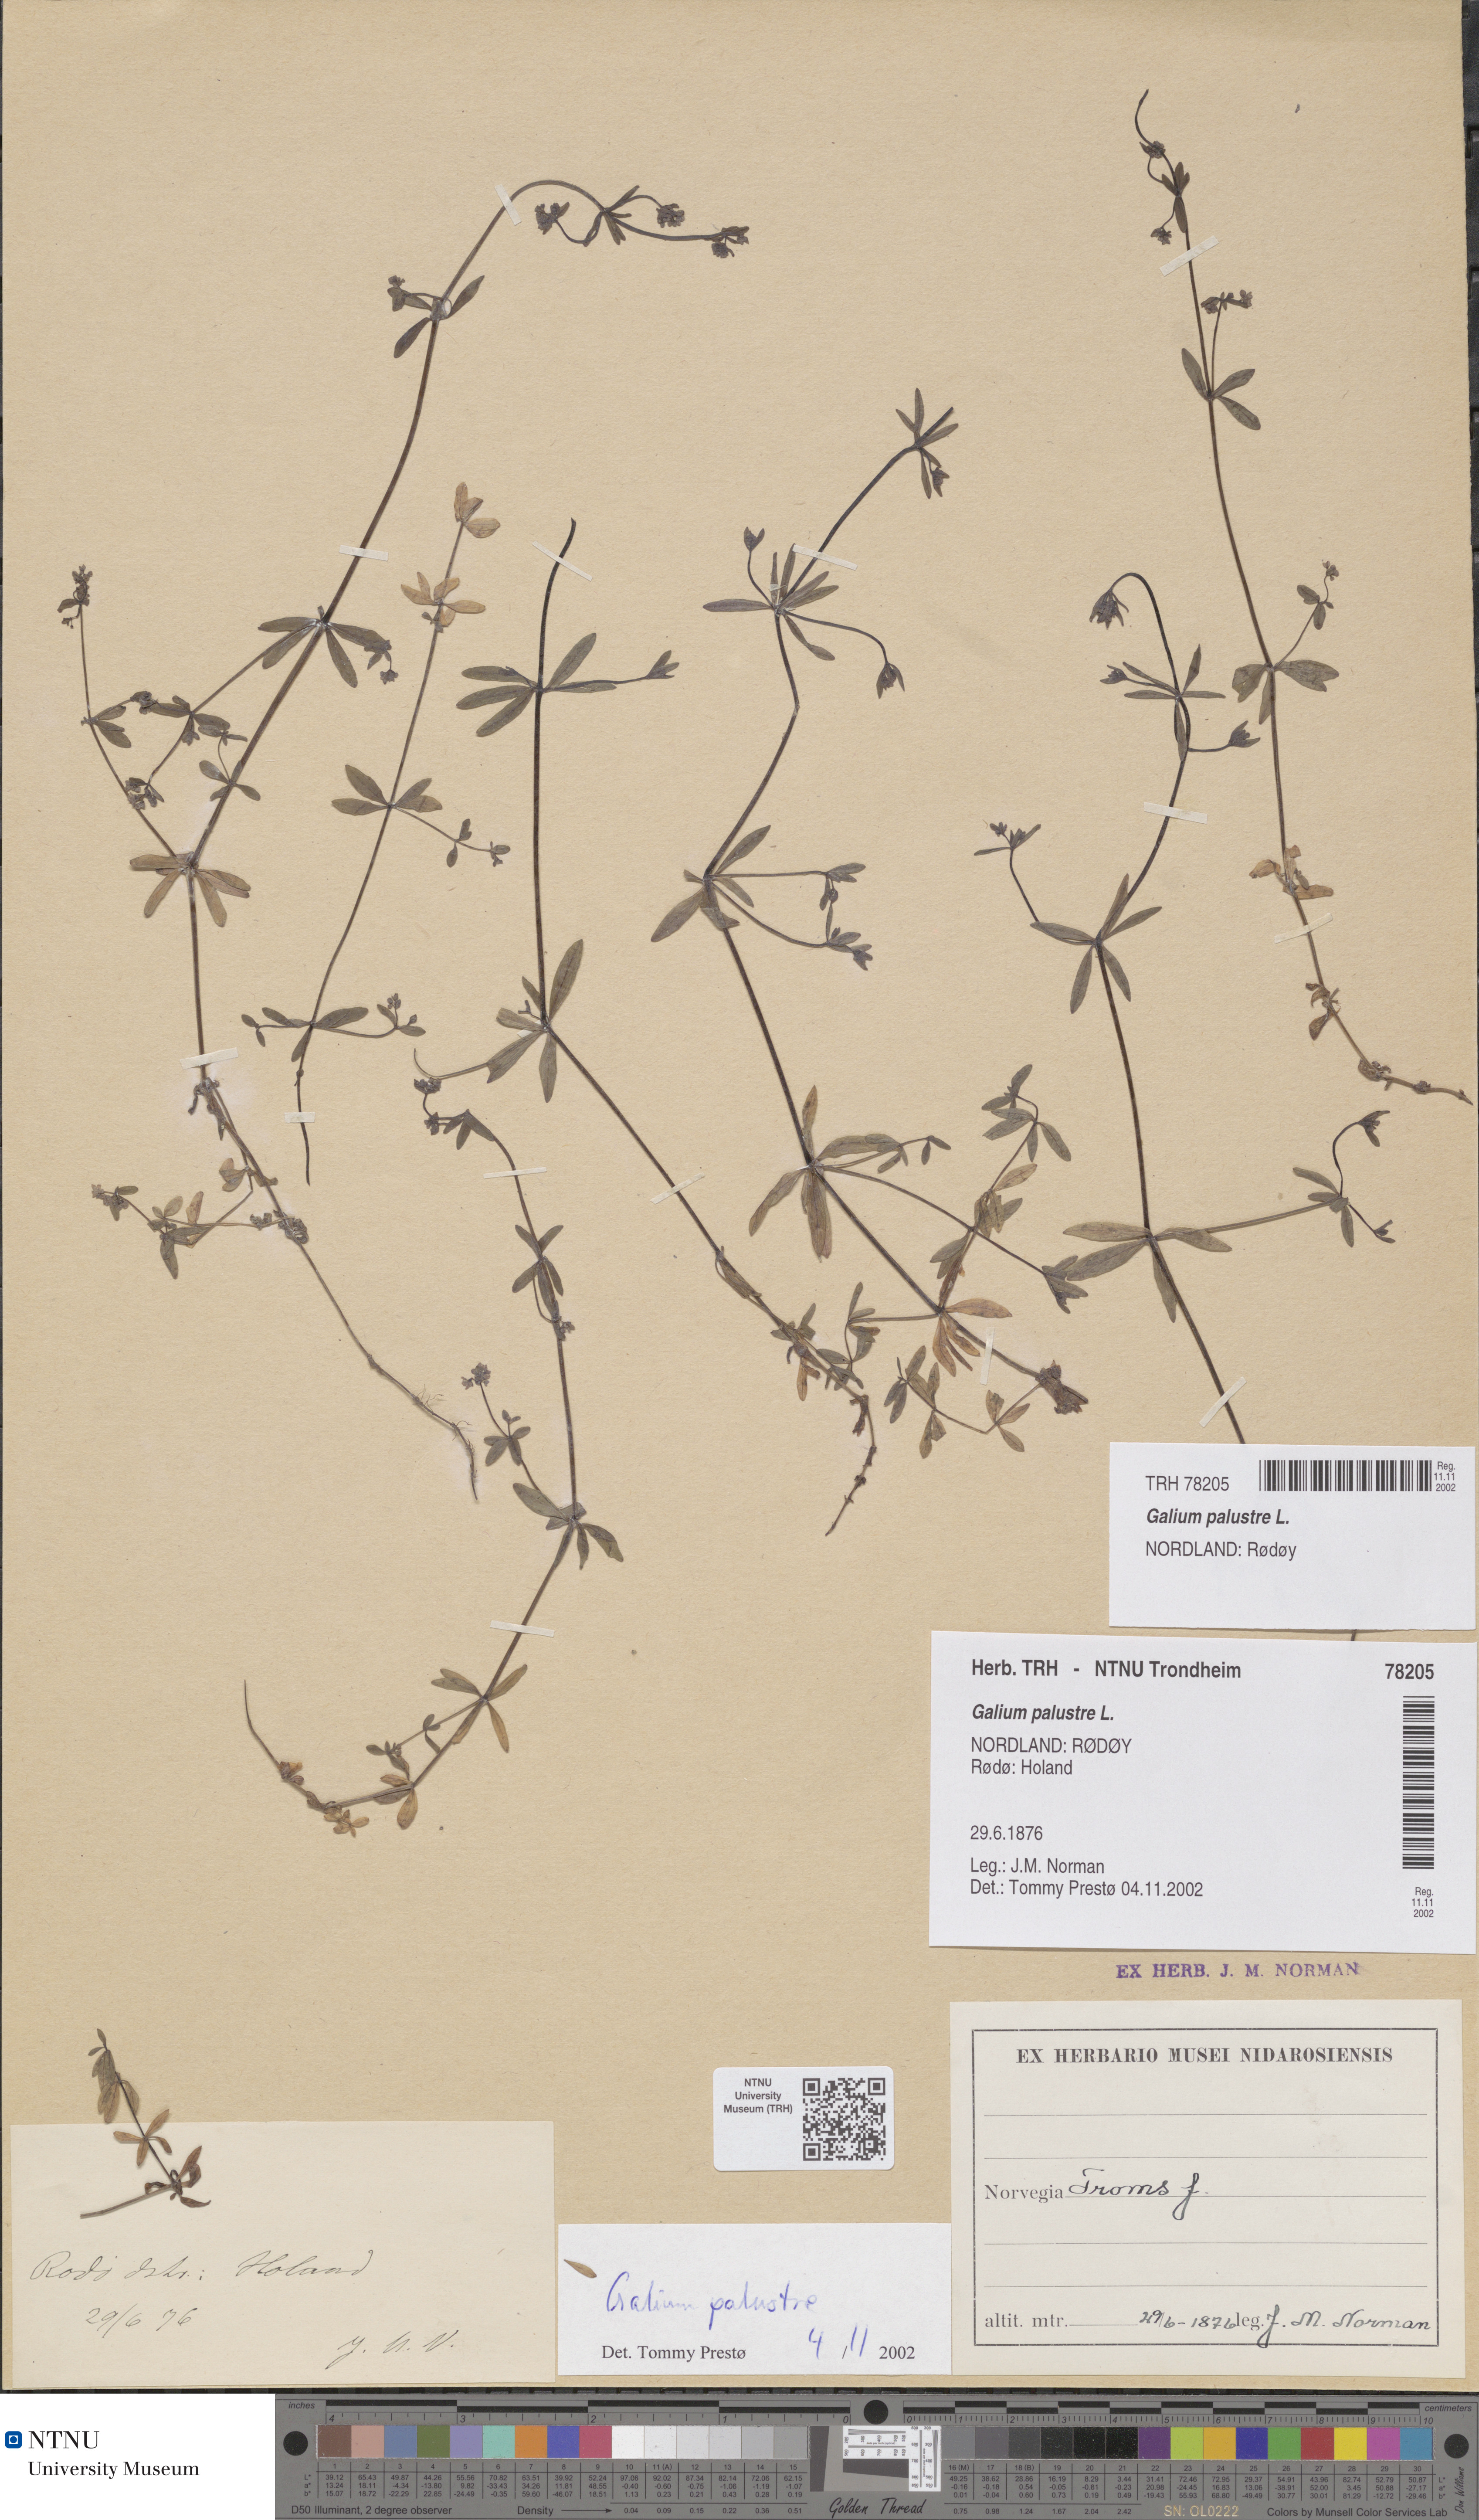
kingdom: Plantae
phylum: Tracheophyta
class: Magnoliopsida
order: Gentianales
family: Rubiaceae
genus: Galium
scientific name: Galium palustre
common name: Common marsh-bedstraw
